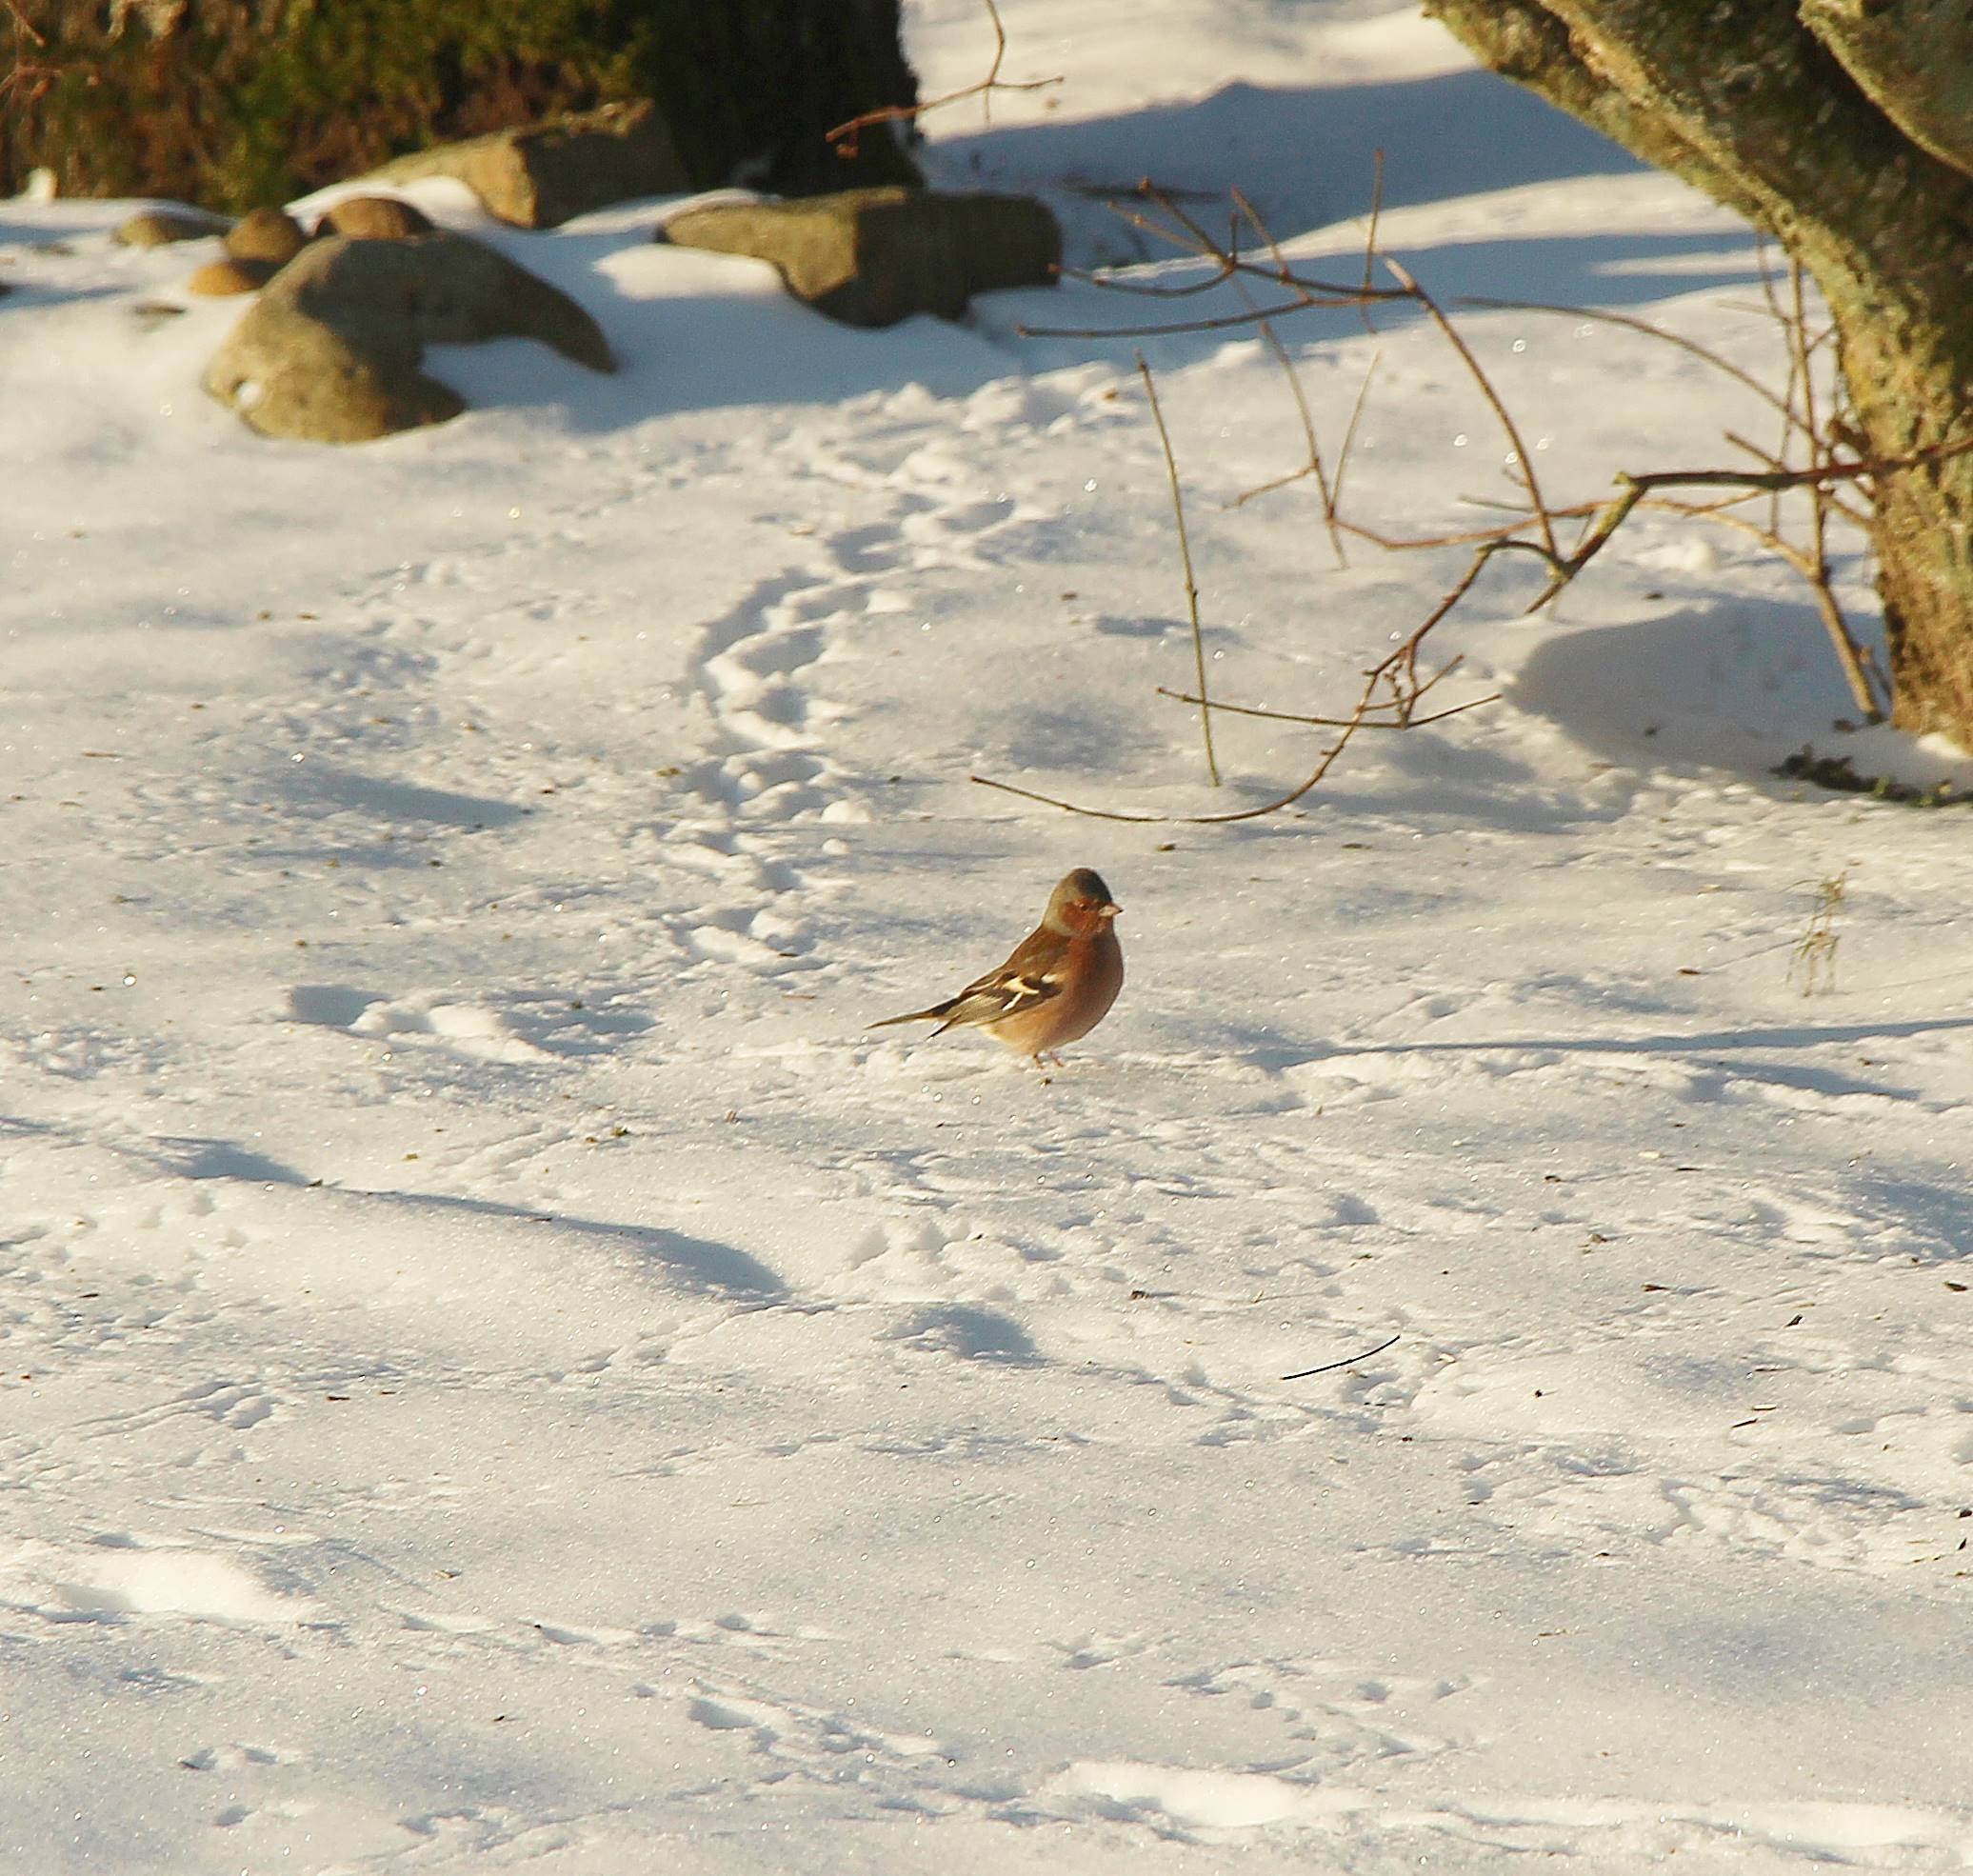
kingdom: Animalia
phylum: Chordata
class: Aves
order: Passeriformes
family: Fringillidae
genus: Fringilla
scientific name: Fringilla coelebs
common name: Bogfinke
